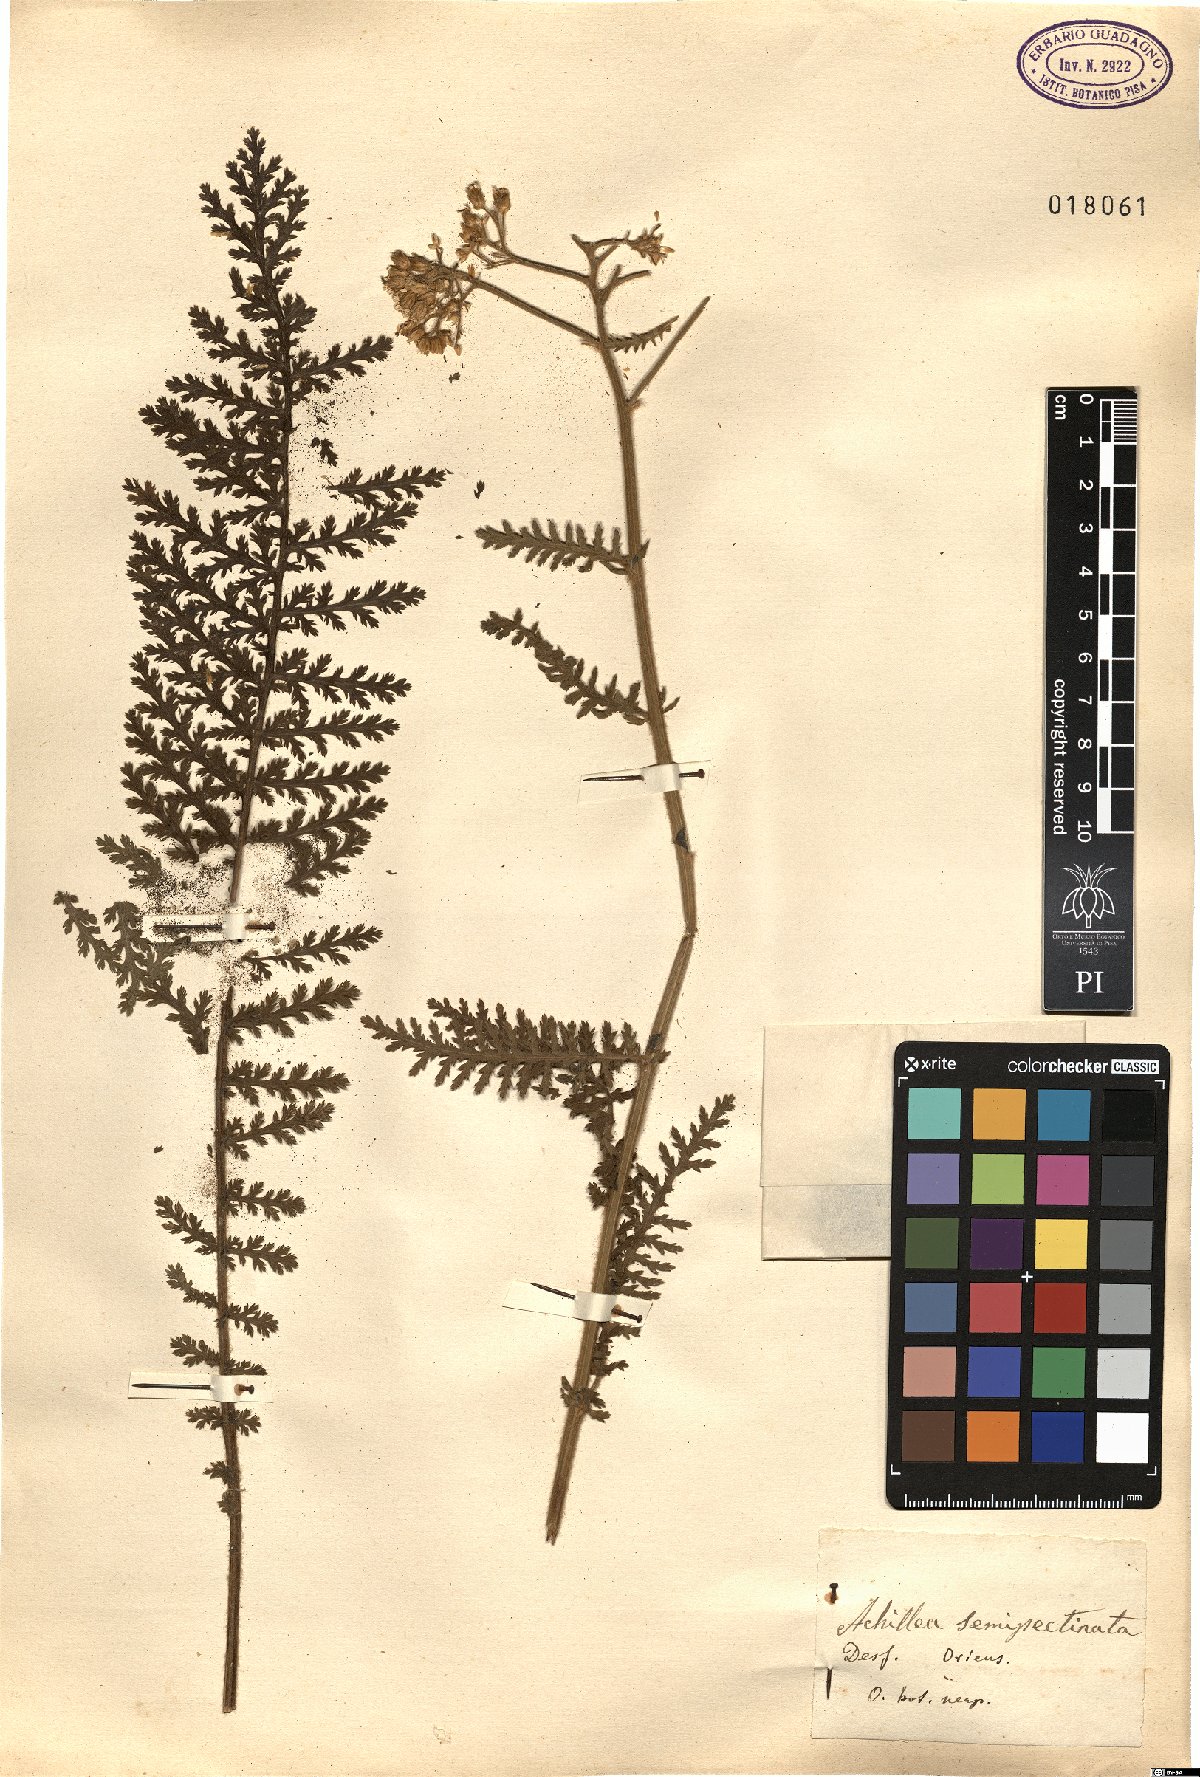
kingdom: Plantae
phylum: Tracheophyta
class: Magnoliopsida
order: Asterales
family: Asteraceae
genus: Achillea
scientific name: Achillea ageratifolia
